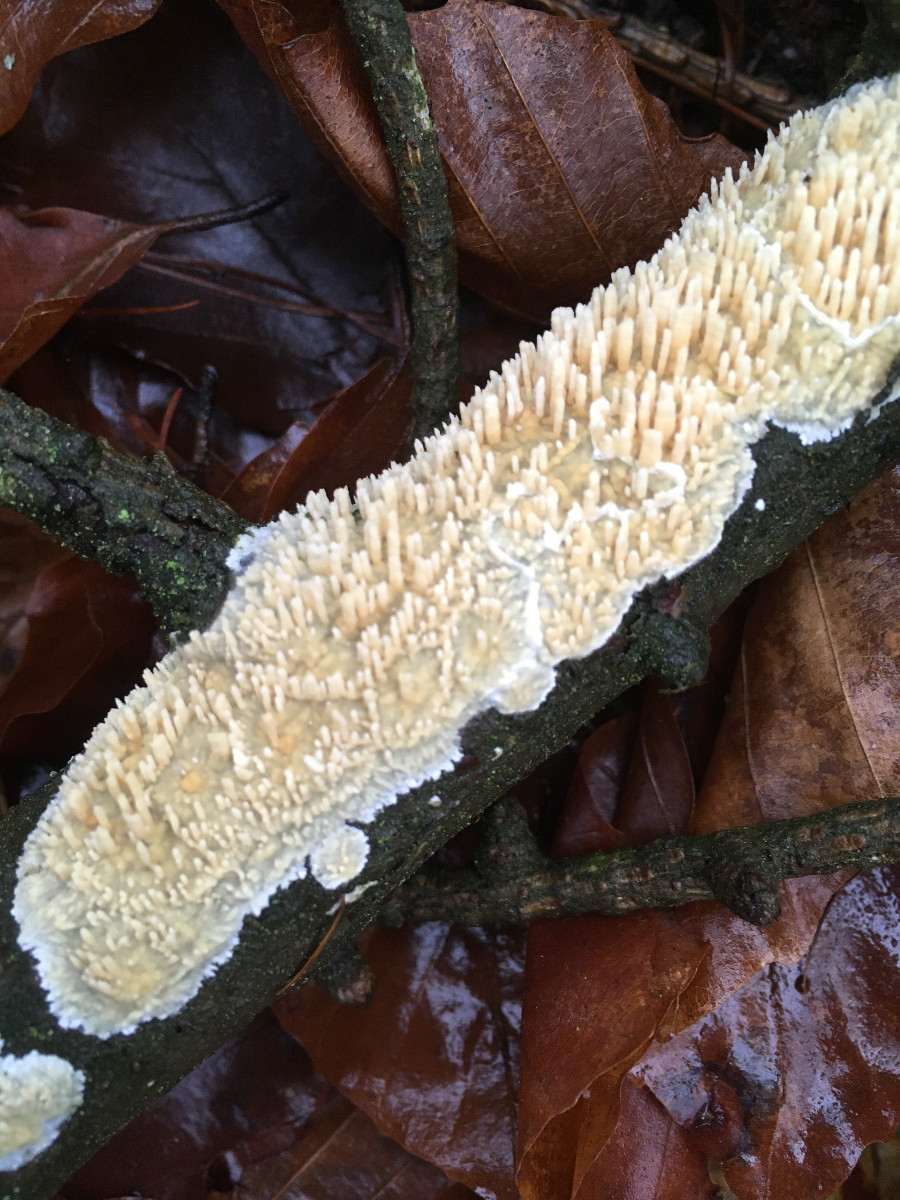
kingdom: Fungi
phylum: Basidiomycota
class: Agaricomycetes
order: Hymenochaetales
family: Schizoporaceae
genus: Xylodon
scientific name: Xylodon radula
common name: grovtandet kalkskind
